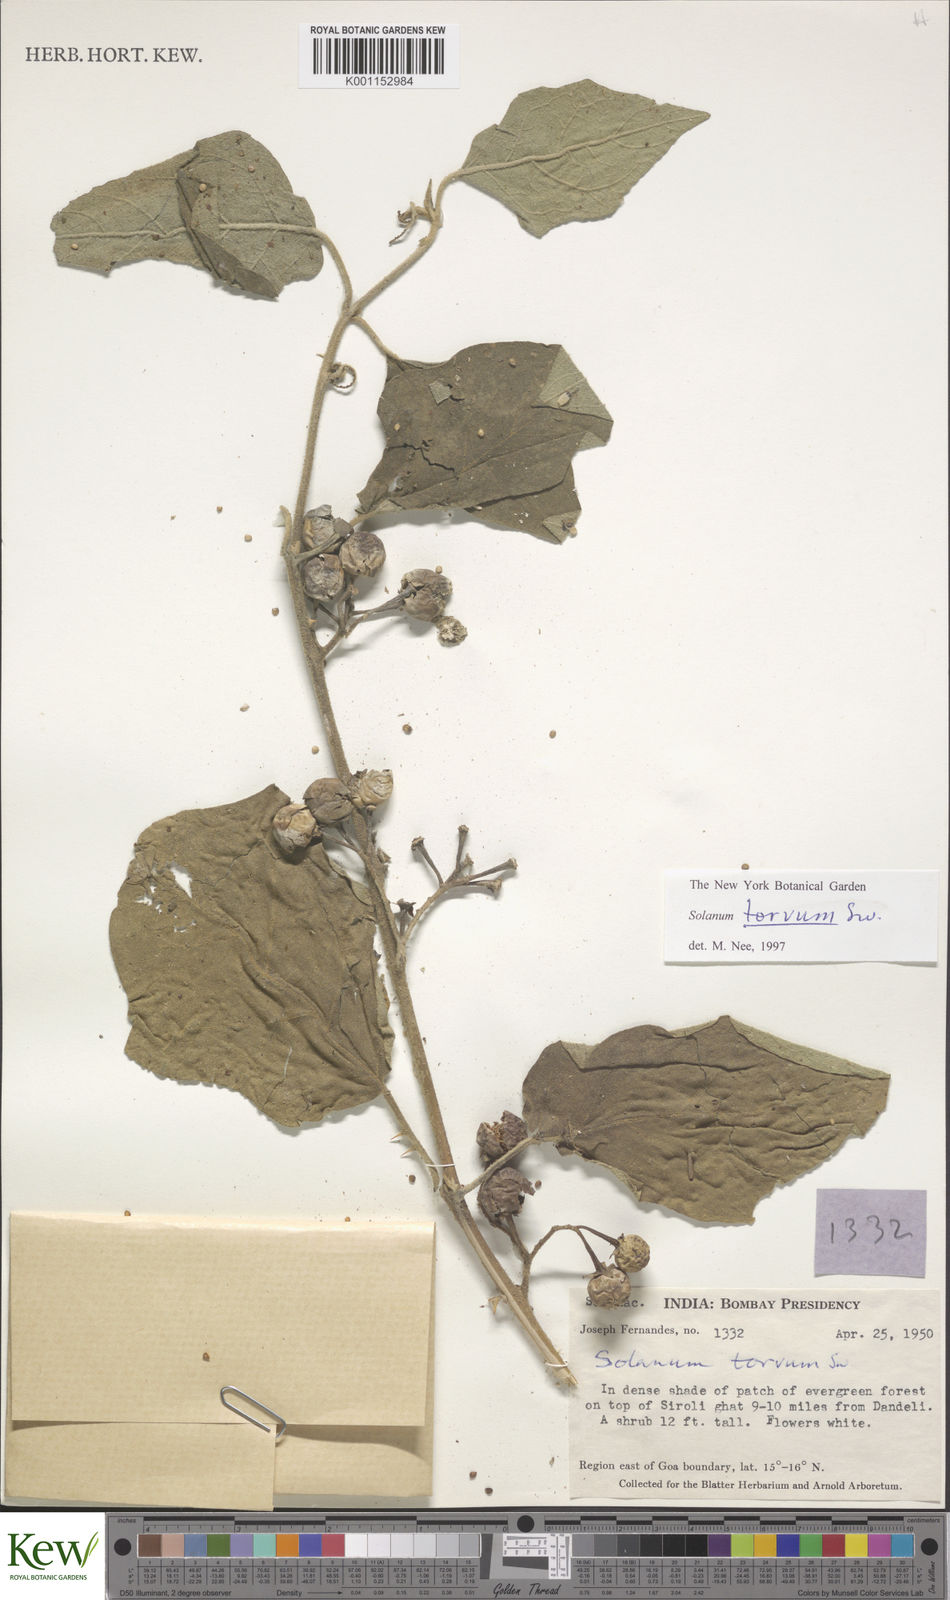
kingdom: Plantae
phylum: Tracheophyta
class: Magnoliopsida
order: Solanales
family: Solanaceae
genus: Solanum
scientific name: Solanum torvum
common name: Turkey berry
